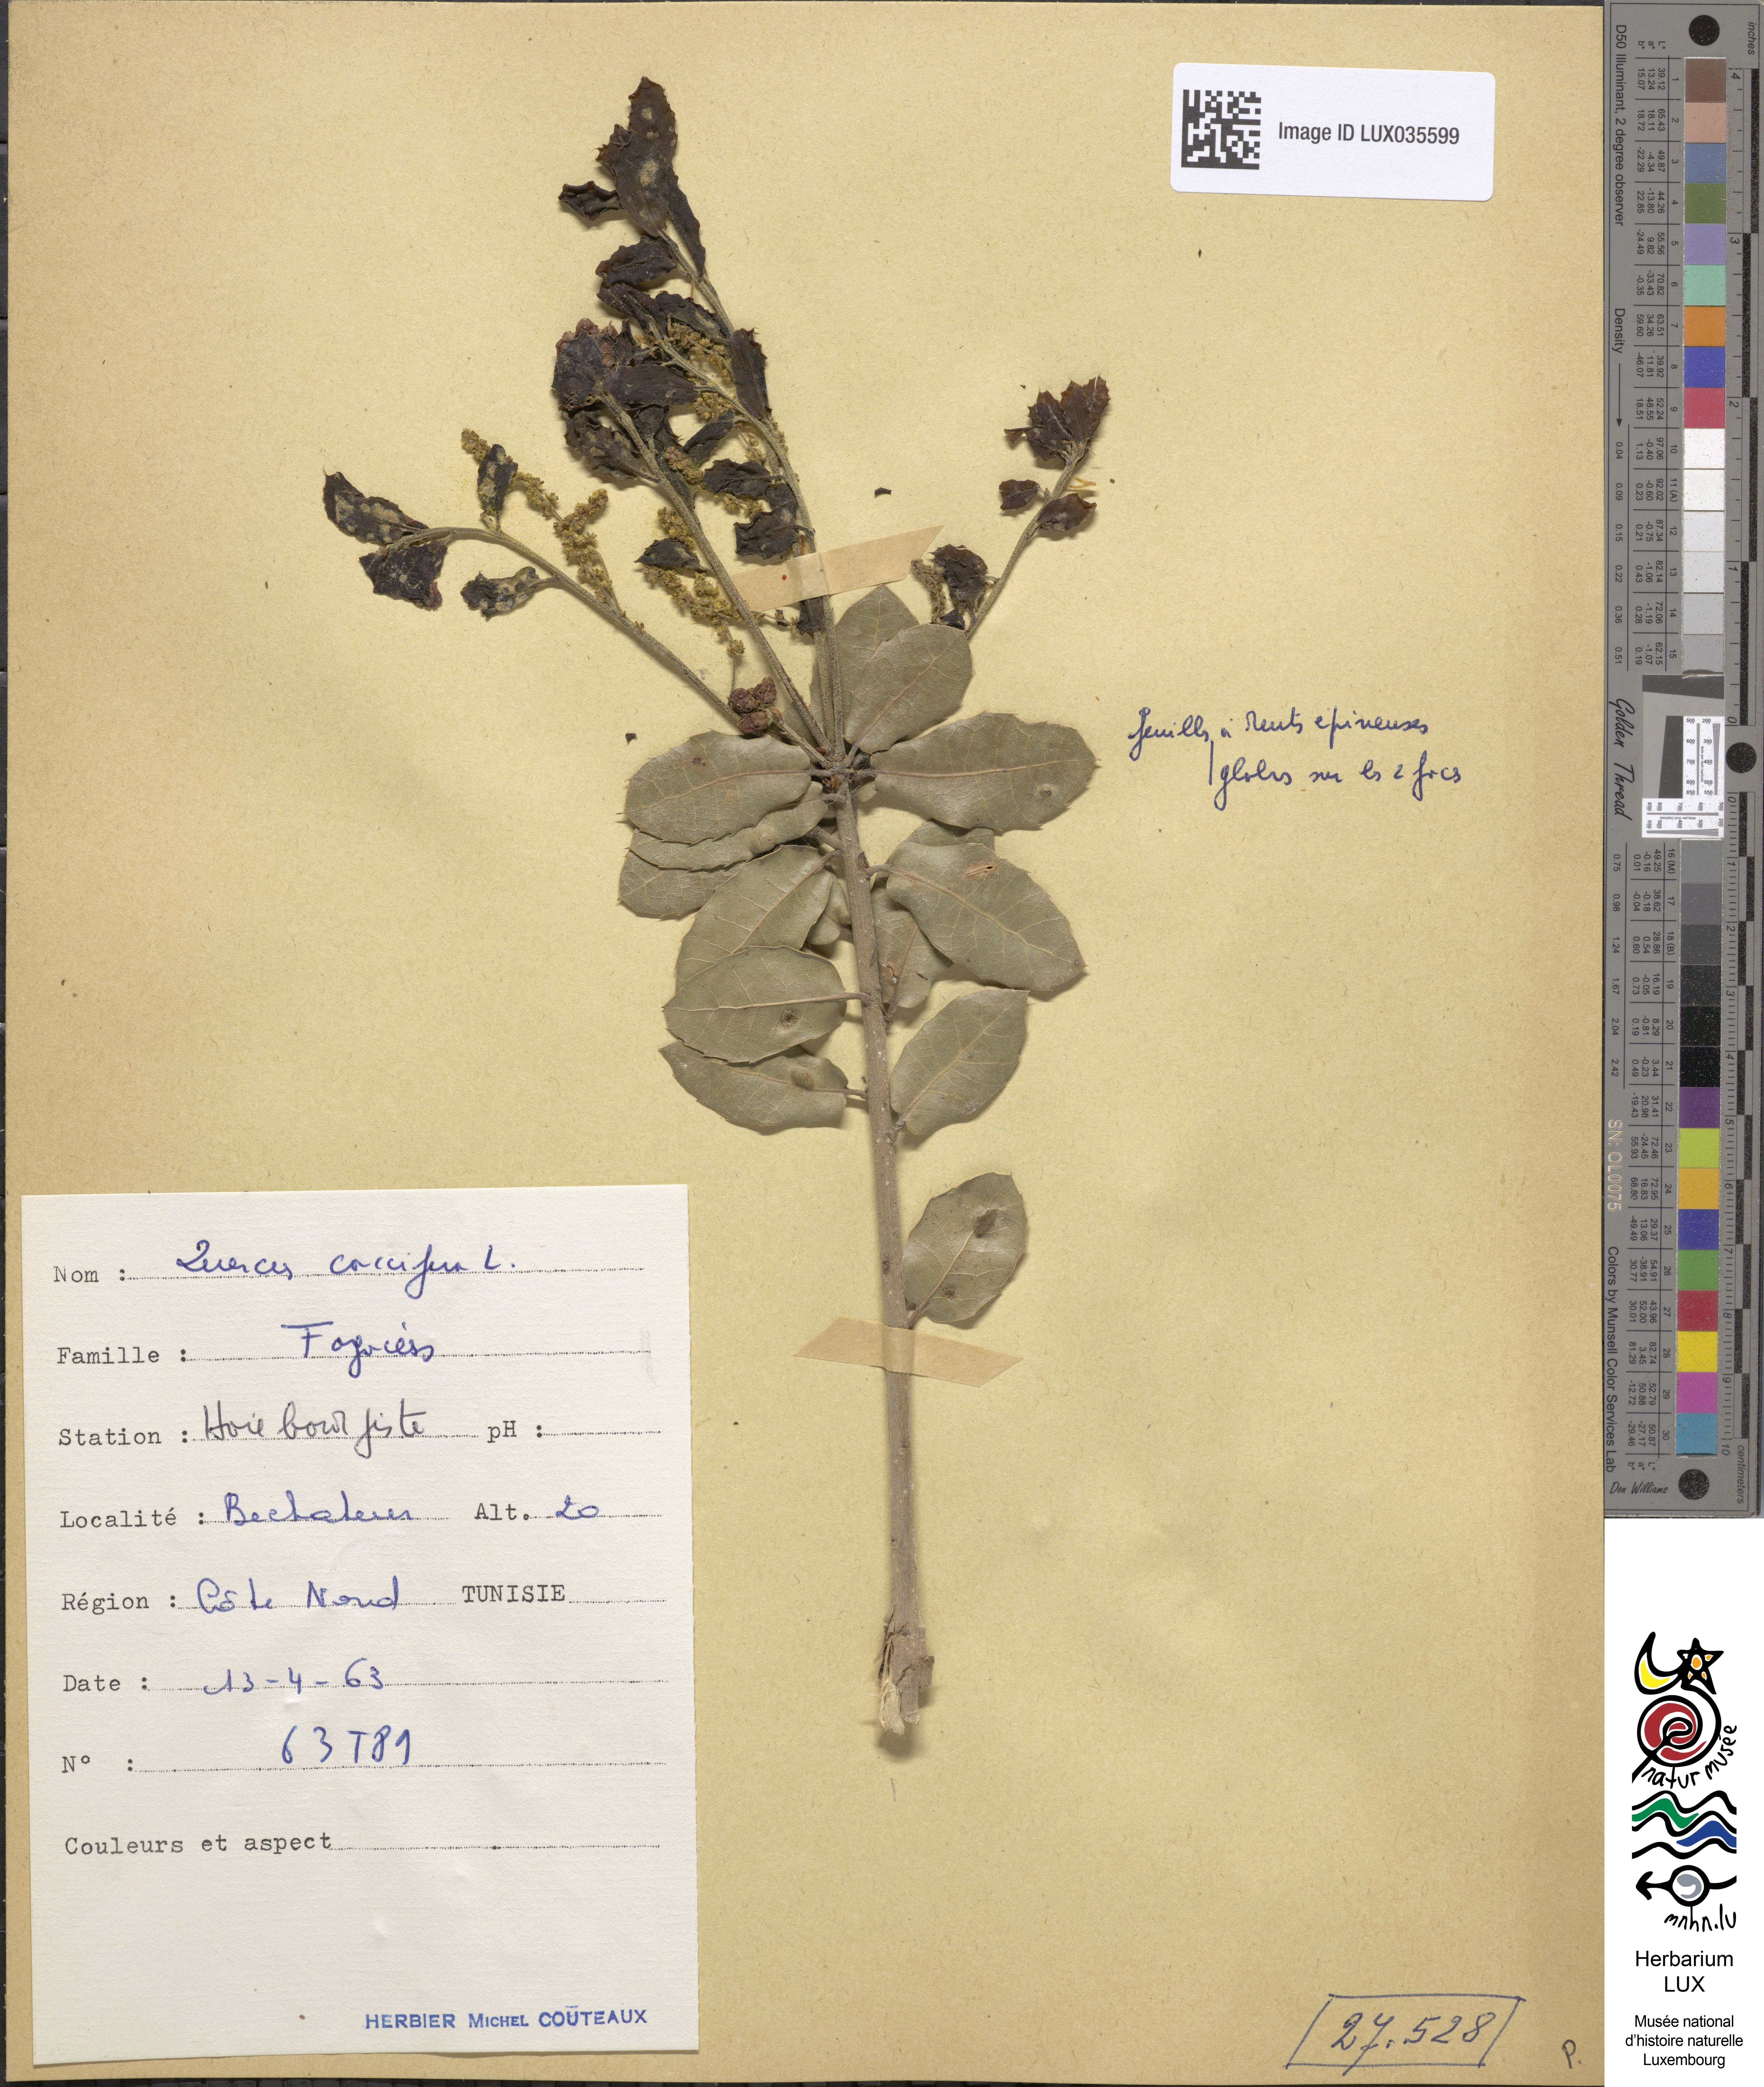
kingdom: Plantae
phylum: Tracheophyta
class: Magnoliopsida
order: Fagales
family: Fagaceae
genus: Quercus
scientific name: Quercus coccifera
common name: Kermes oak
